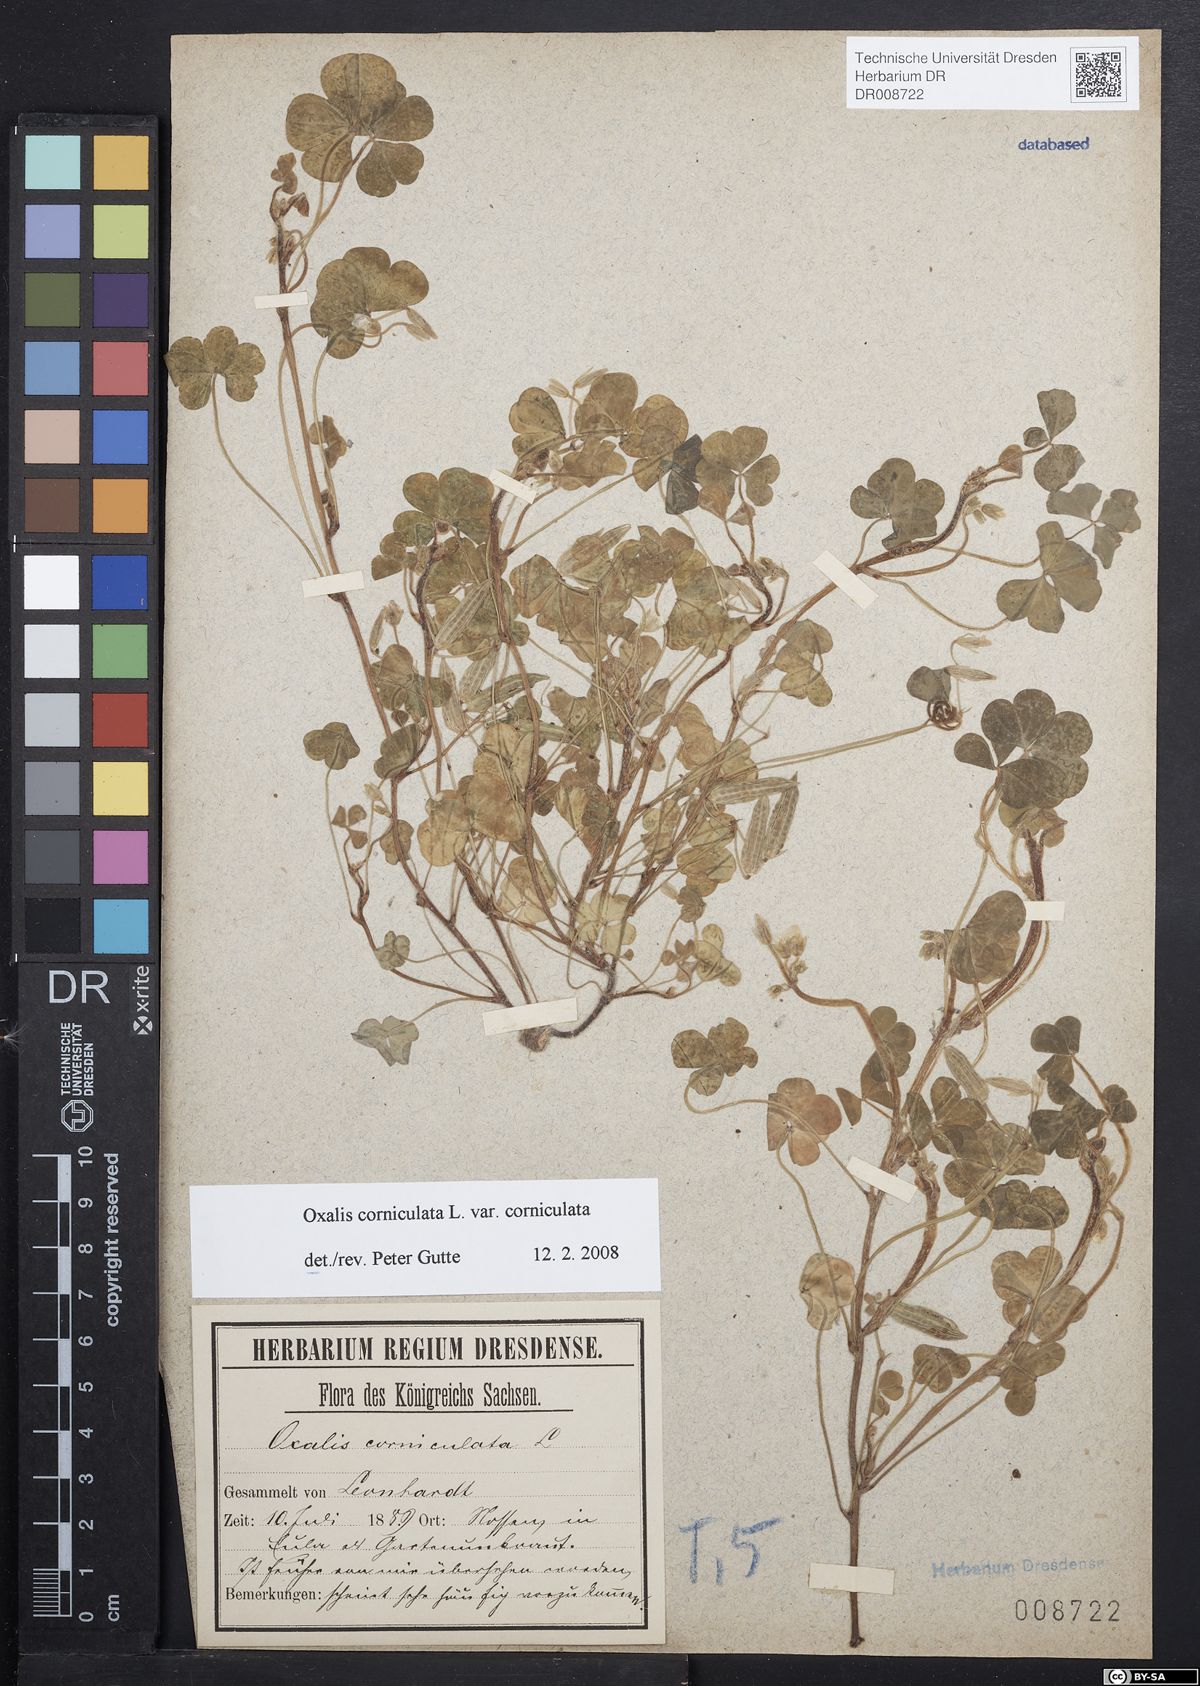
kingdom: Plantae
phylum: Tracheophyta
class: Magnoliopsida
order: Oxalidales
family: Oxalidaceae
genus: Oxalis
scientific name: Oxalis corniculata
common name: Procumbent yellow-sorrel
